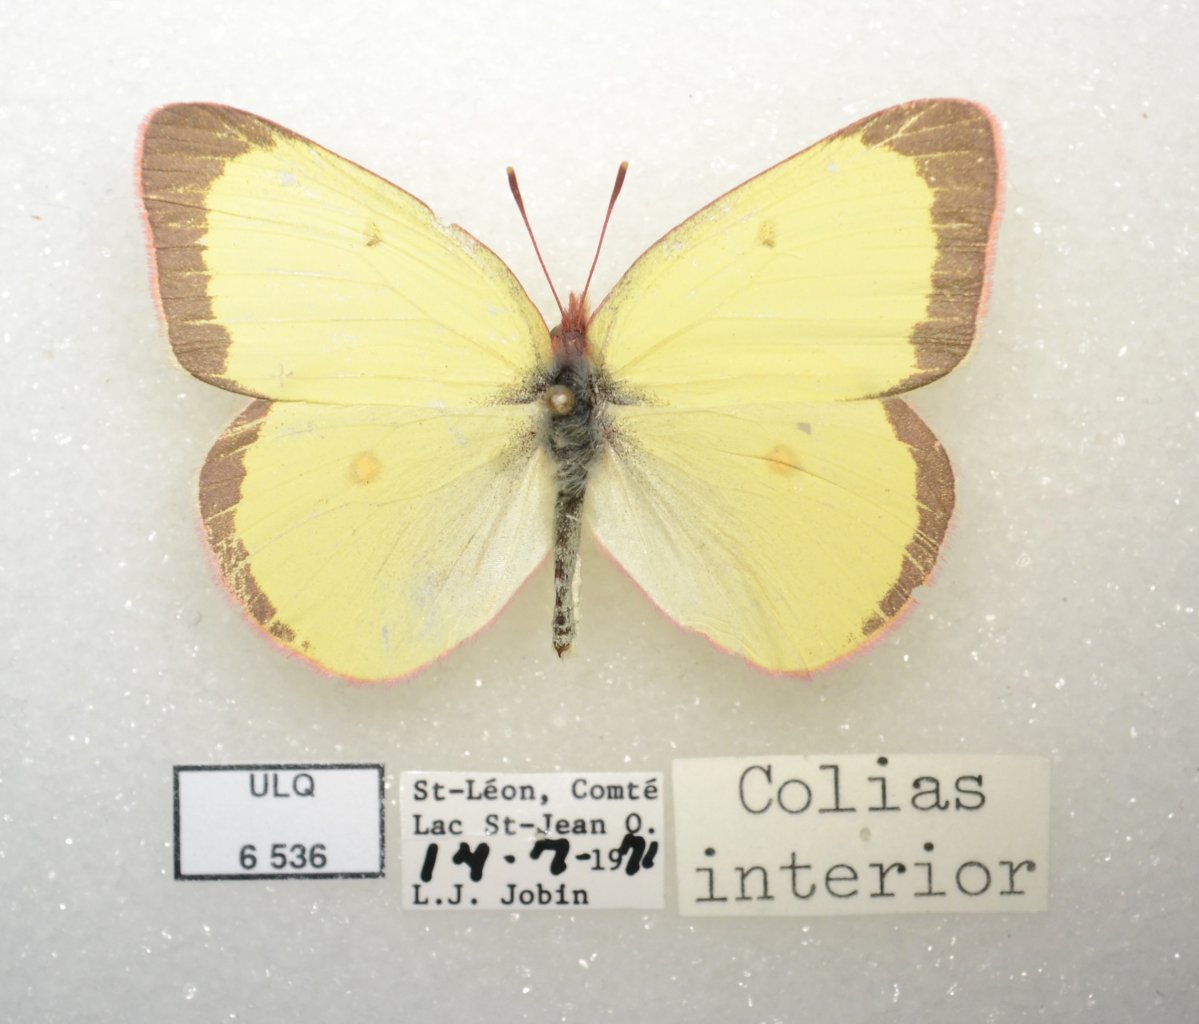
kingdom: Animalia
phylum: Arthropoda
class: Insecta
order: Lepidoptera
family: Pieridae
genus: Colias
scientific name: Colias interior
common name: Pink-edged Sulphur
